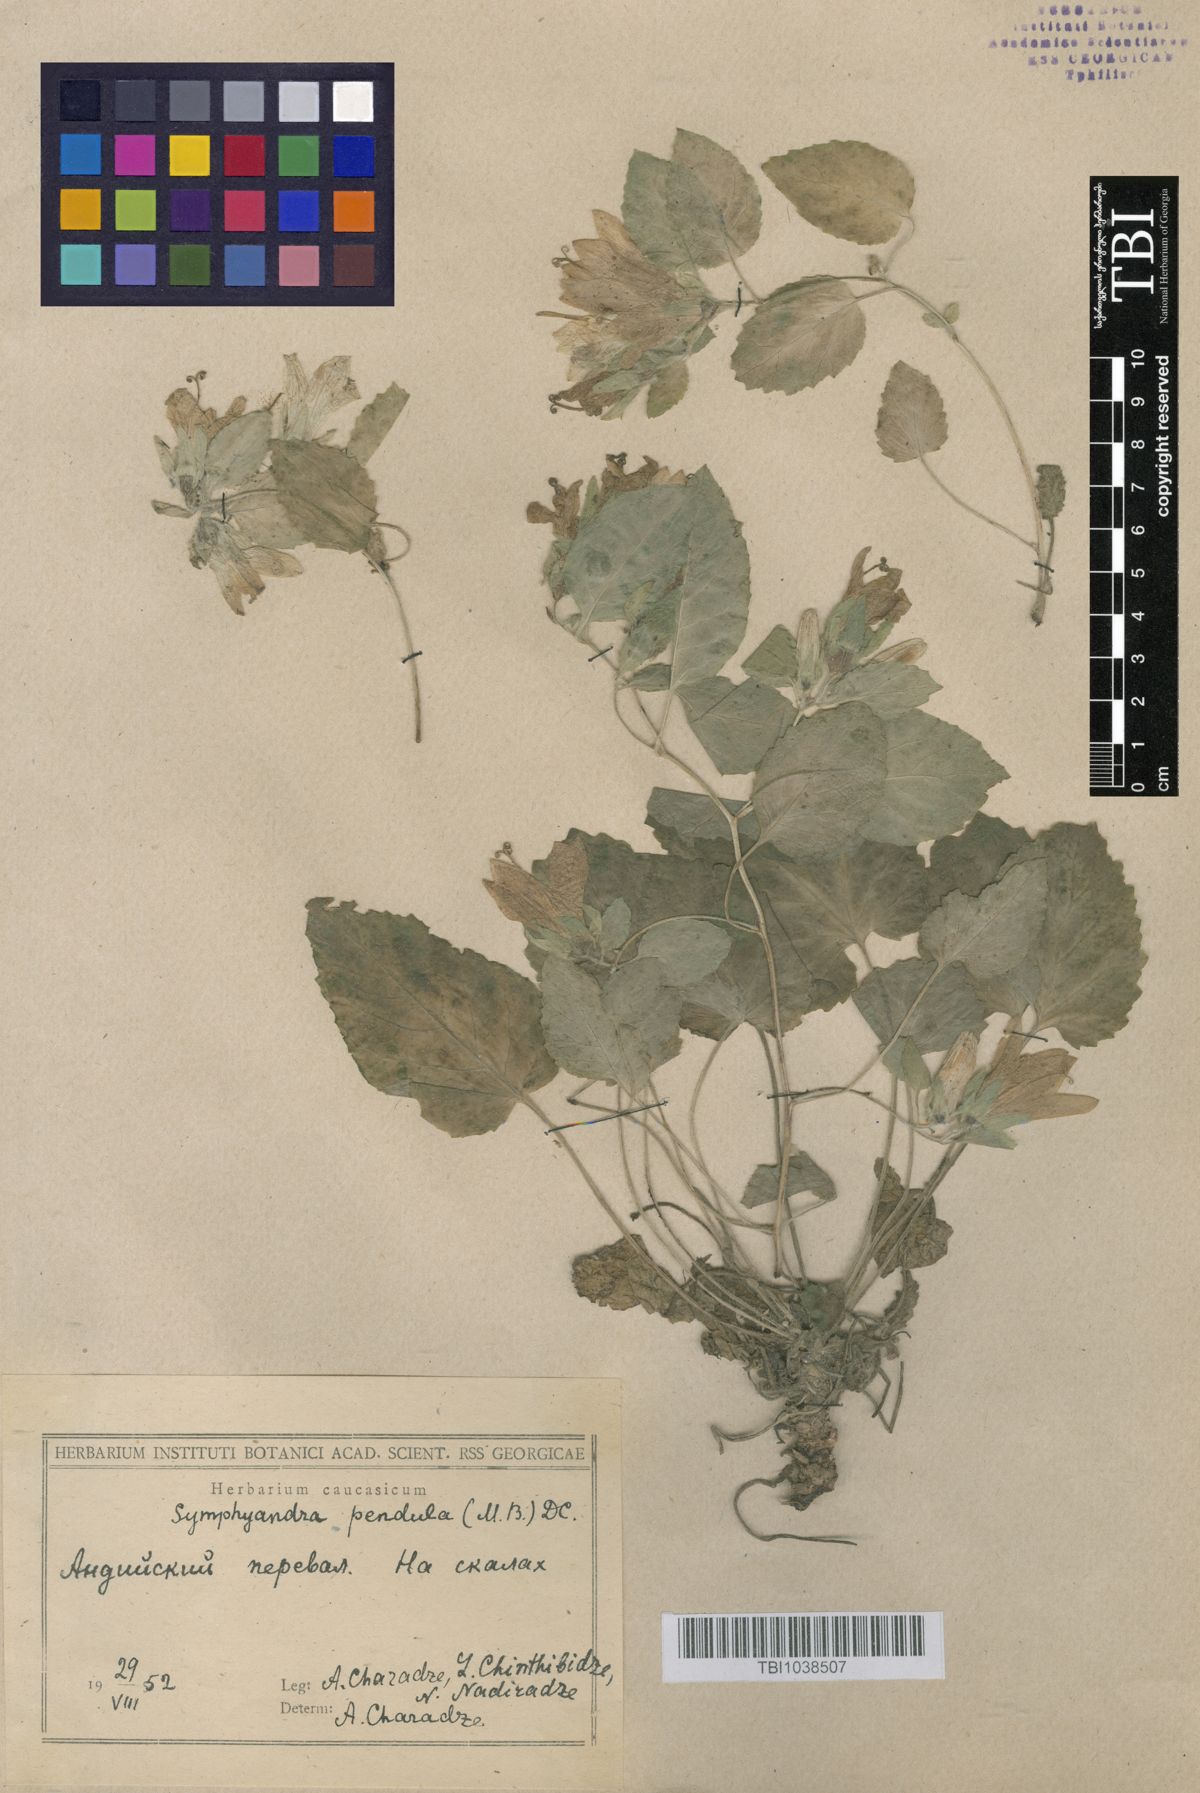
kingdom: Plantae
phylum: Tracheophyta
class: Magnoliopsida
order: Asterales
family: Campanulaceae
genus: Campanula
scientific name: Campanula pendula
